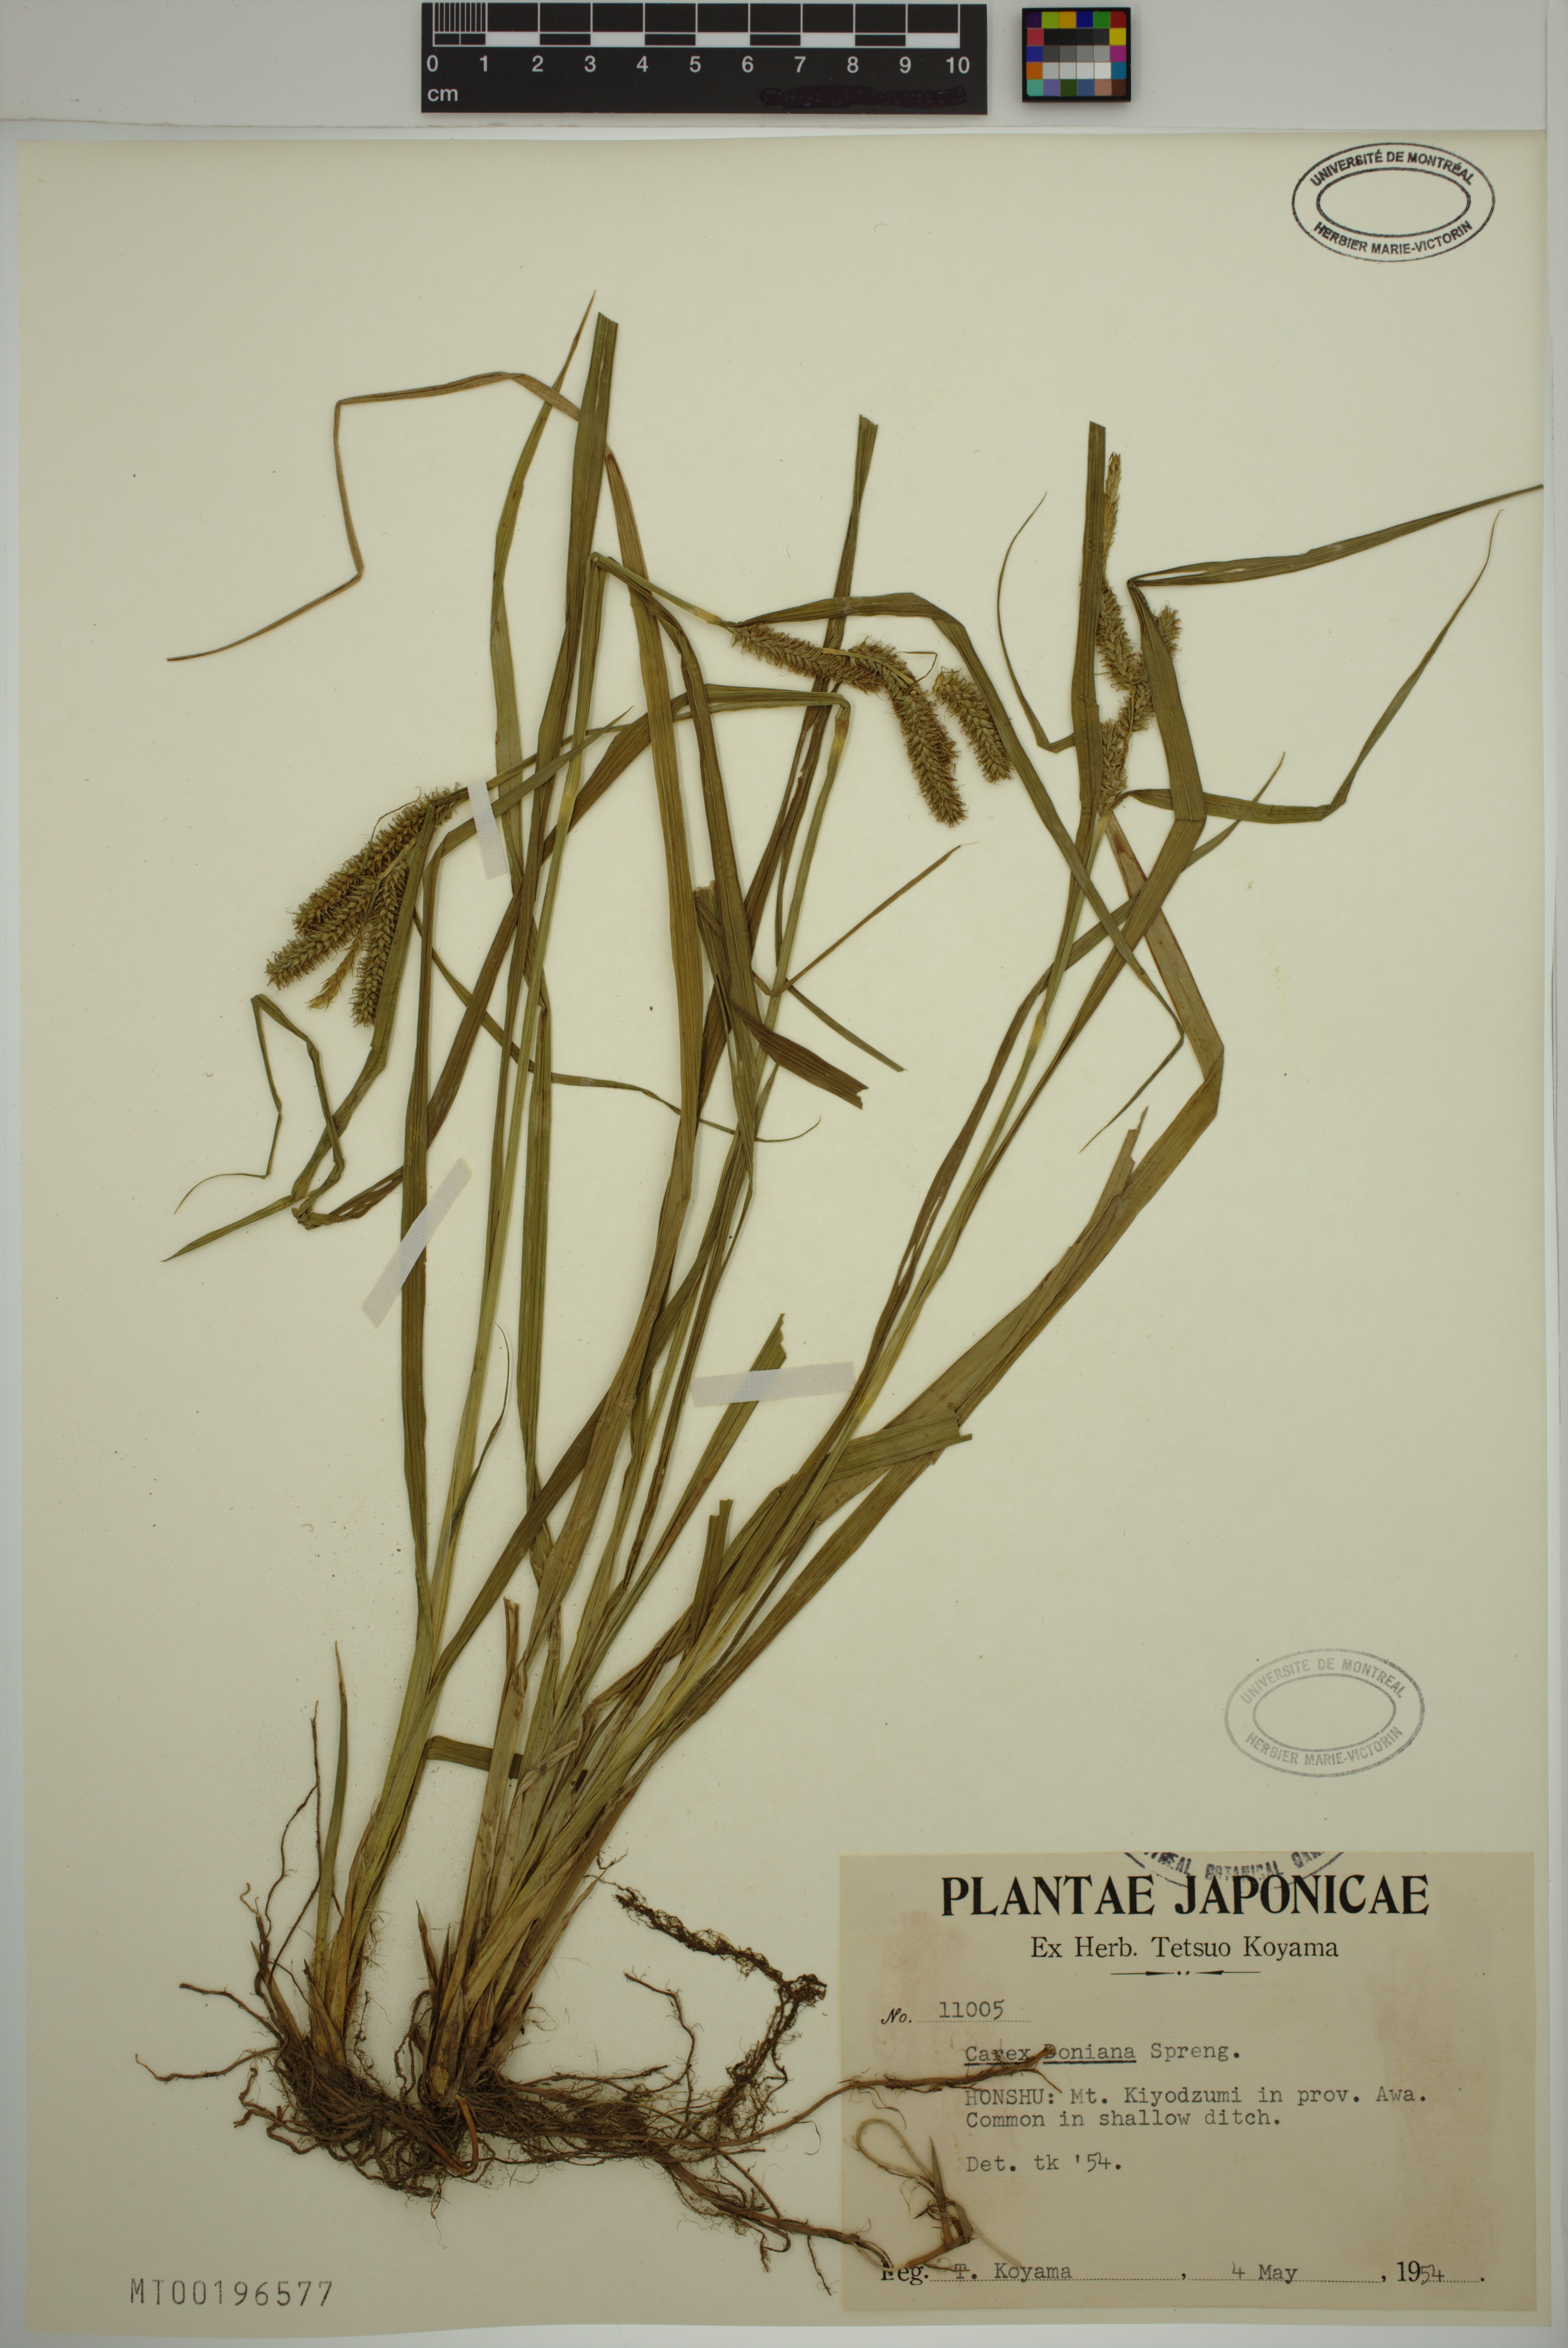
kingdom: Plantae
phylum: Tracheophyta
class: Liliopsida
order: Poales
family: Cyperaceae
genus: Carex
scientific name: Carex doniana
